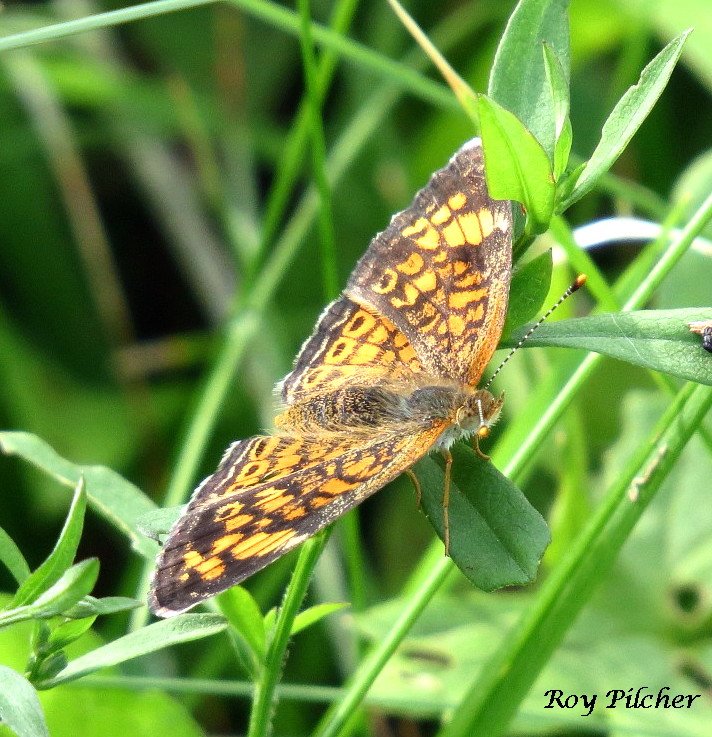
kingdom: Animalia
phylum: Arthropoda
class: Insecta
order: Lepidoptera
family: Nymphalidae
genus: Phyciodes
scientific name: Phyciodes tharos
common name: Pearl Crescent
